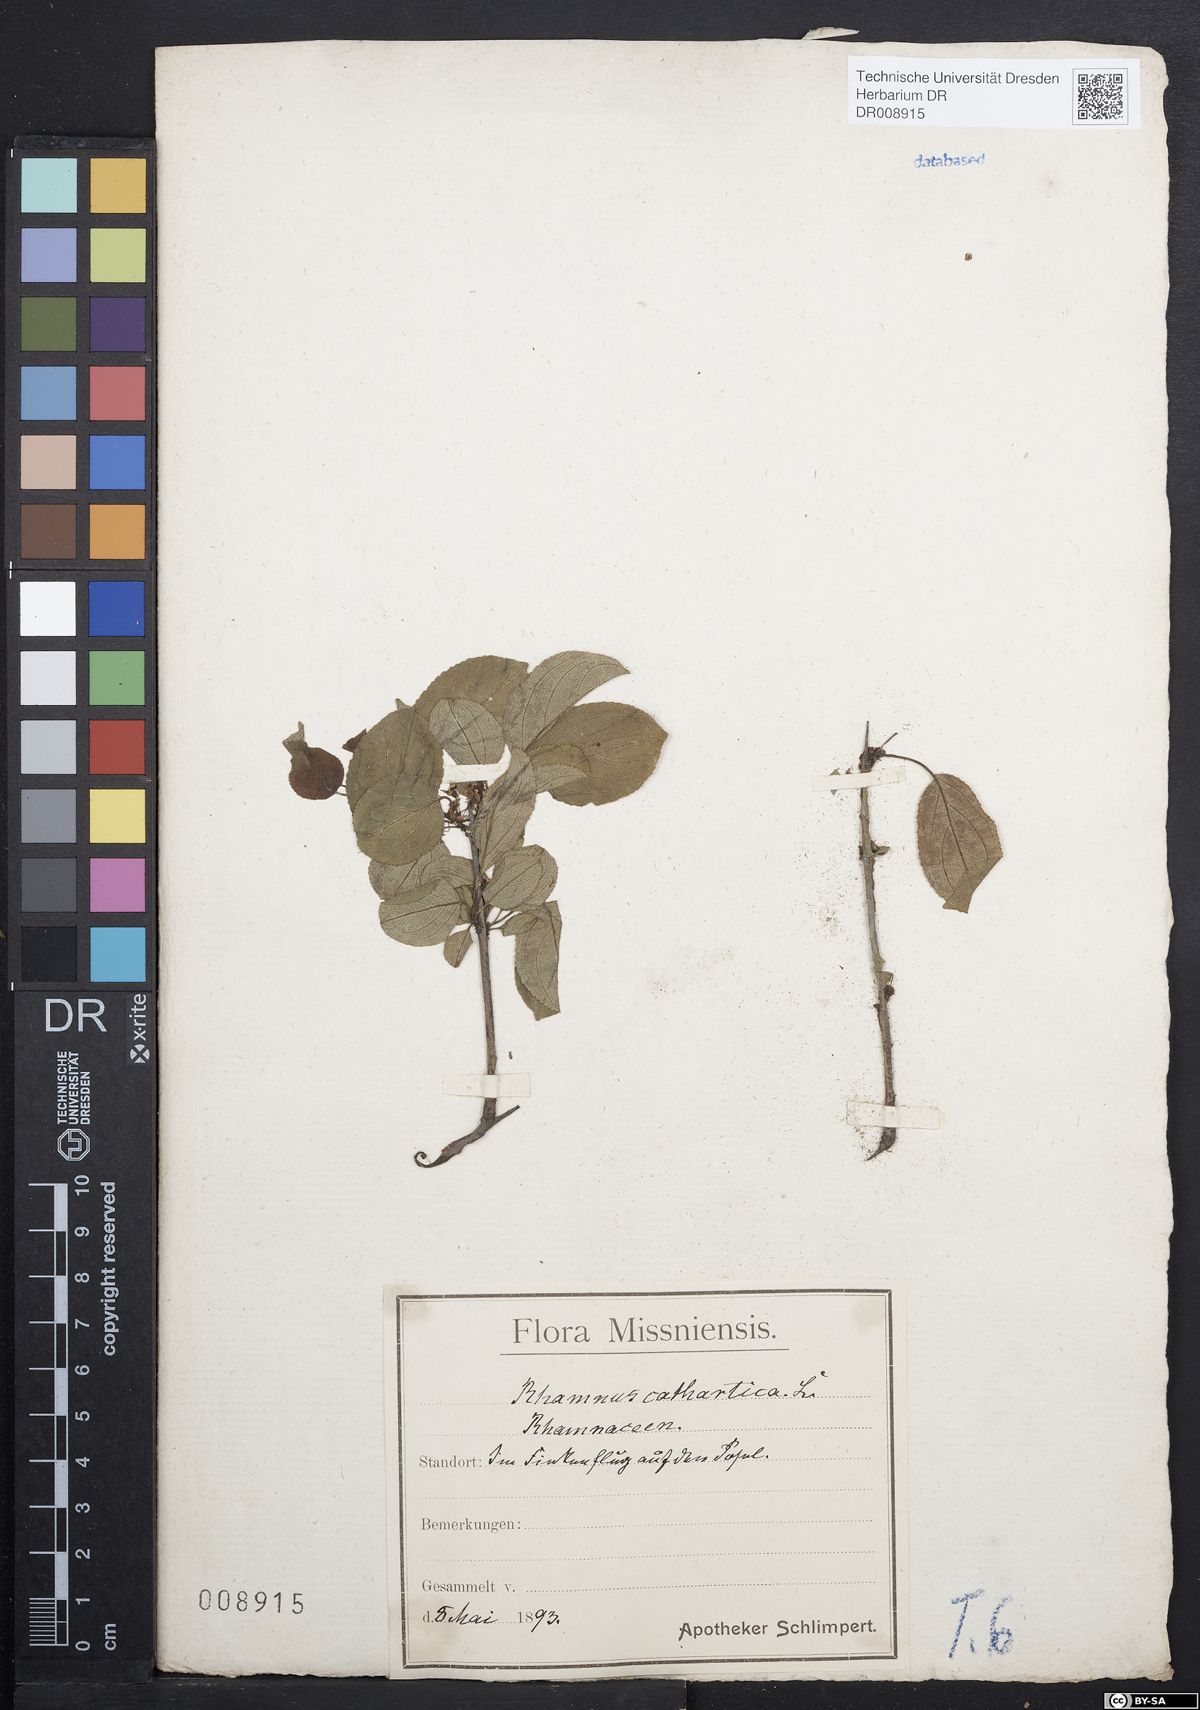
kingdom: Plantae
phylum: Tracheophyta
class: Magnoliopsida
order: Rosales
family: Rhamnaceae
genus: Rhamnus
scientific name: Rhamnus cathartica
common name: Common buckthorn
